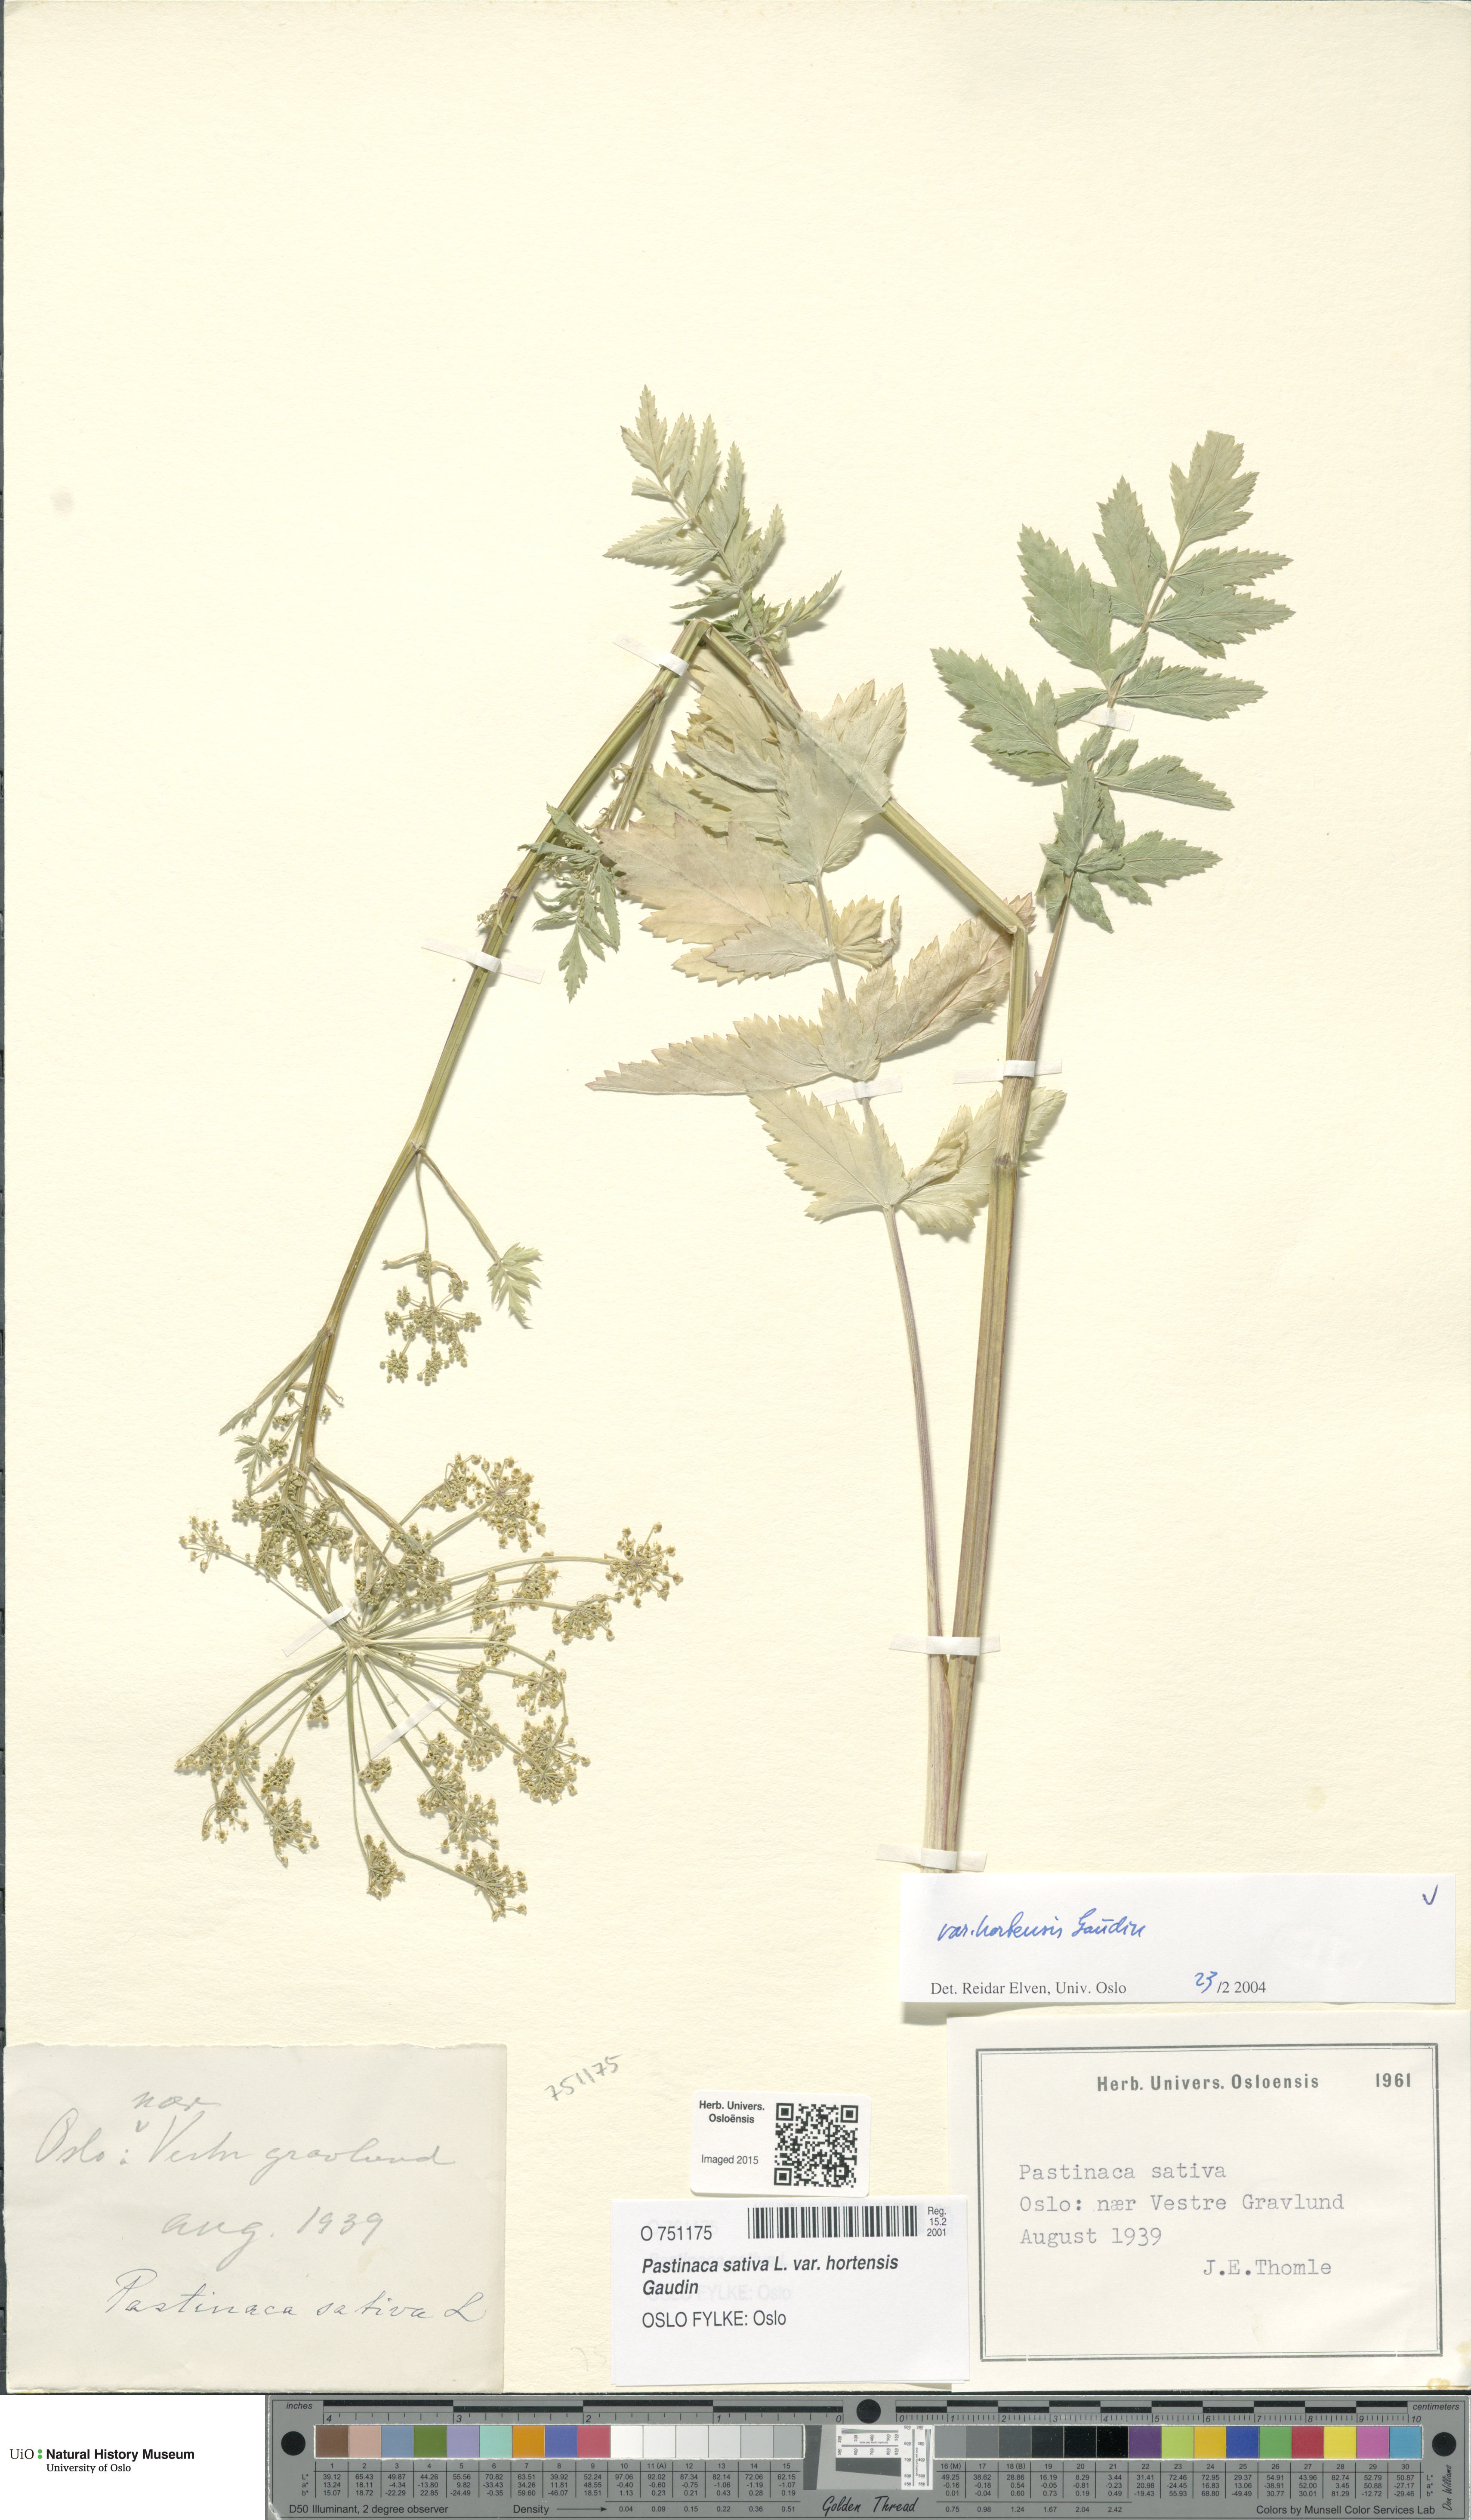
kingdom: Plantae
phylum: Tracheophyta
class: Magnoliopsida
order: Apiales
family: Apiaceae
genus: Pastinaca
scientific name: Pastinaca sativa
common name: Wild parsnip
